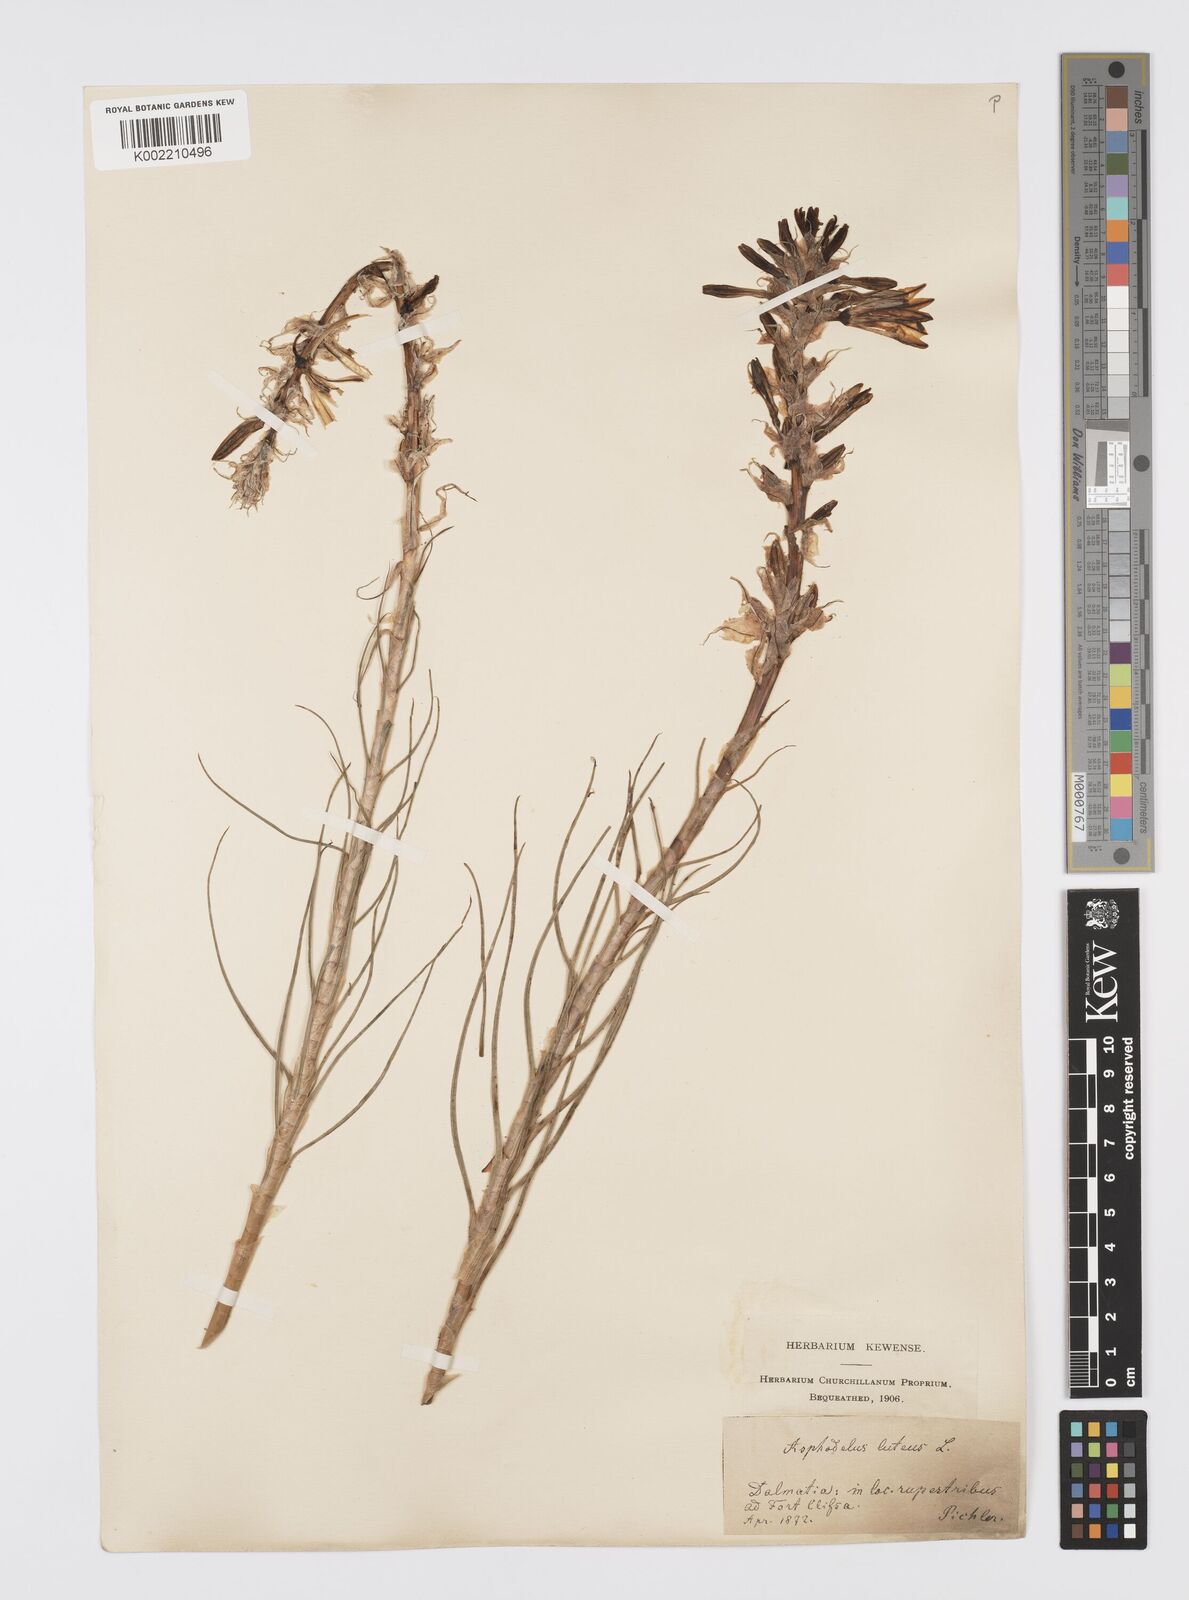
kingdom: Plantae
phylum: Tracheophyta
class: Liliopsida
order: Asparagales
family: Asphodelaceae
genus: Asphodeline
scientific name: Asphodeline lutea
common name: Yellow asphodel
